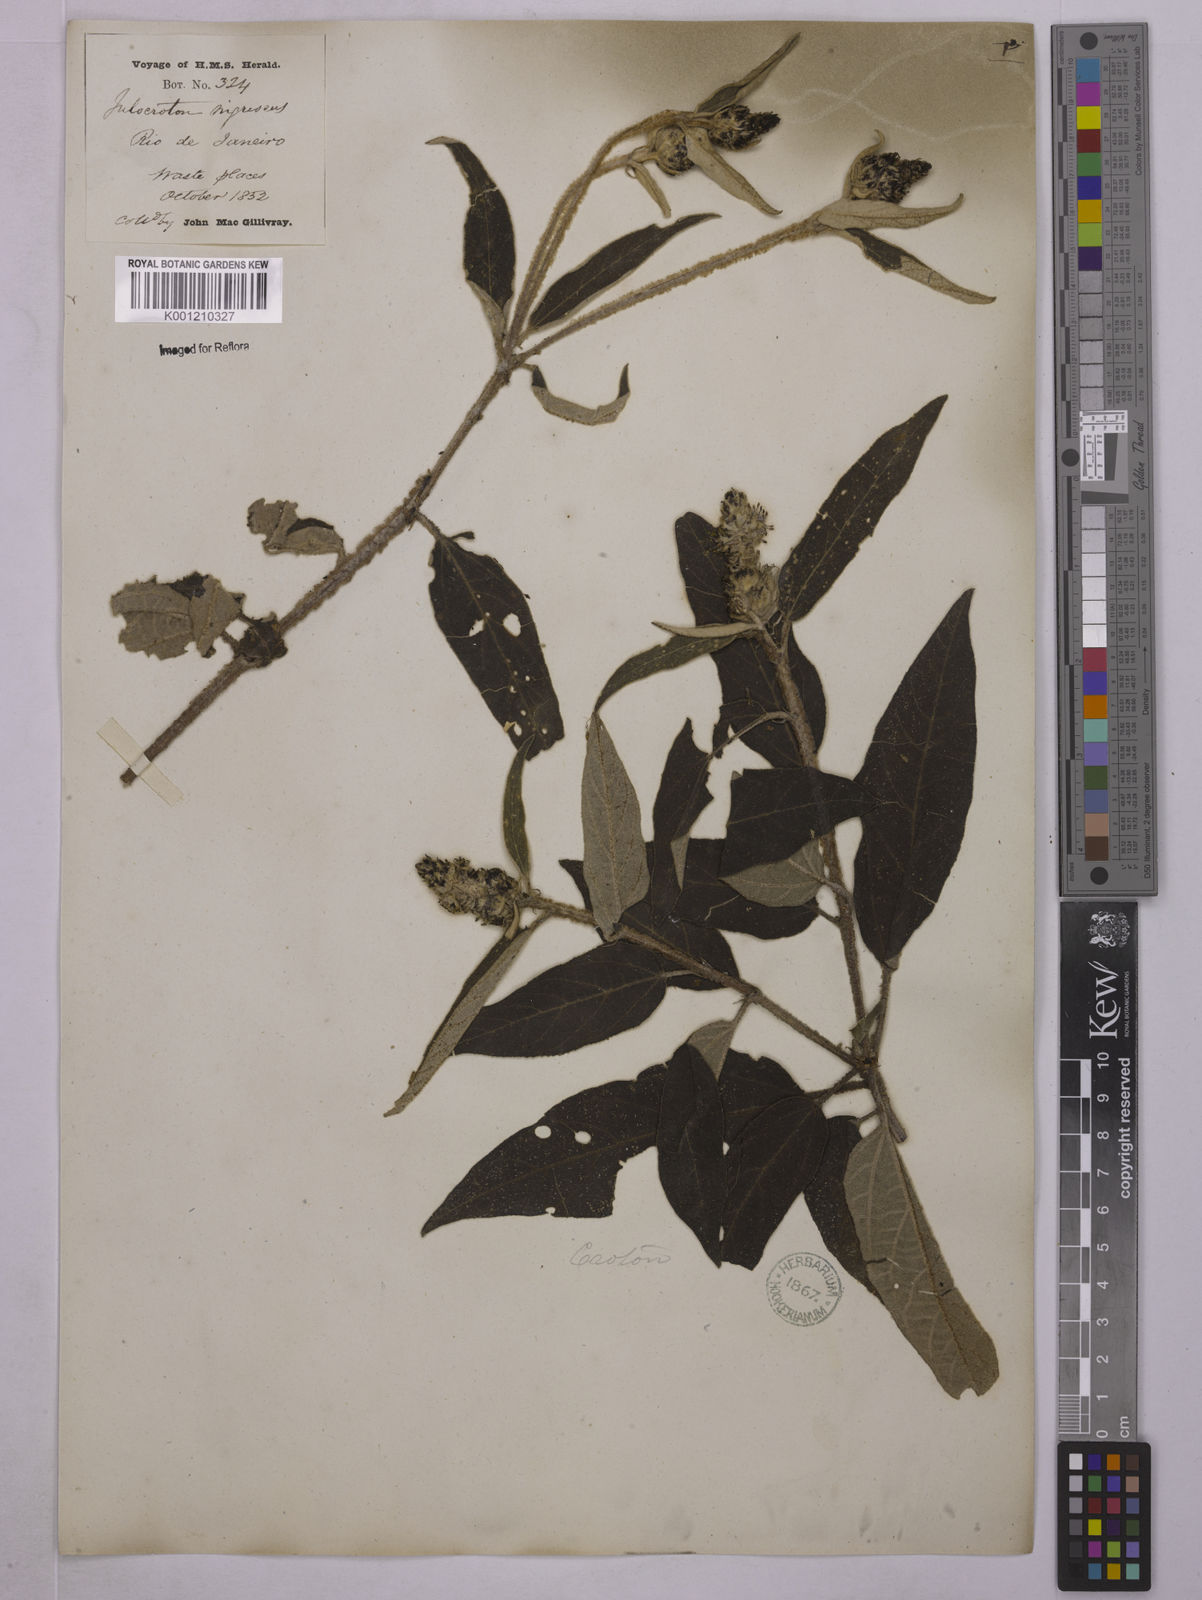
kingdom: Plantae
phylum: Tracheophyta
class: Magnoliopsida
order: Malpighiales
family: Euphorbiaceae
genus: Croton
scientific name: Croton gnaphaloides
